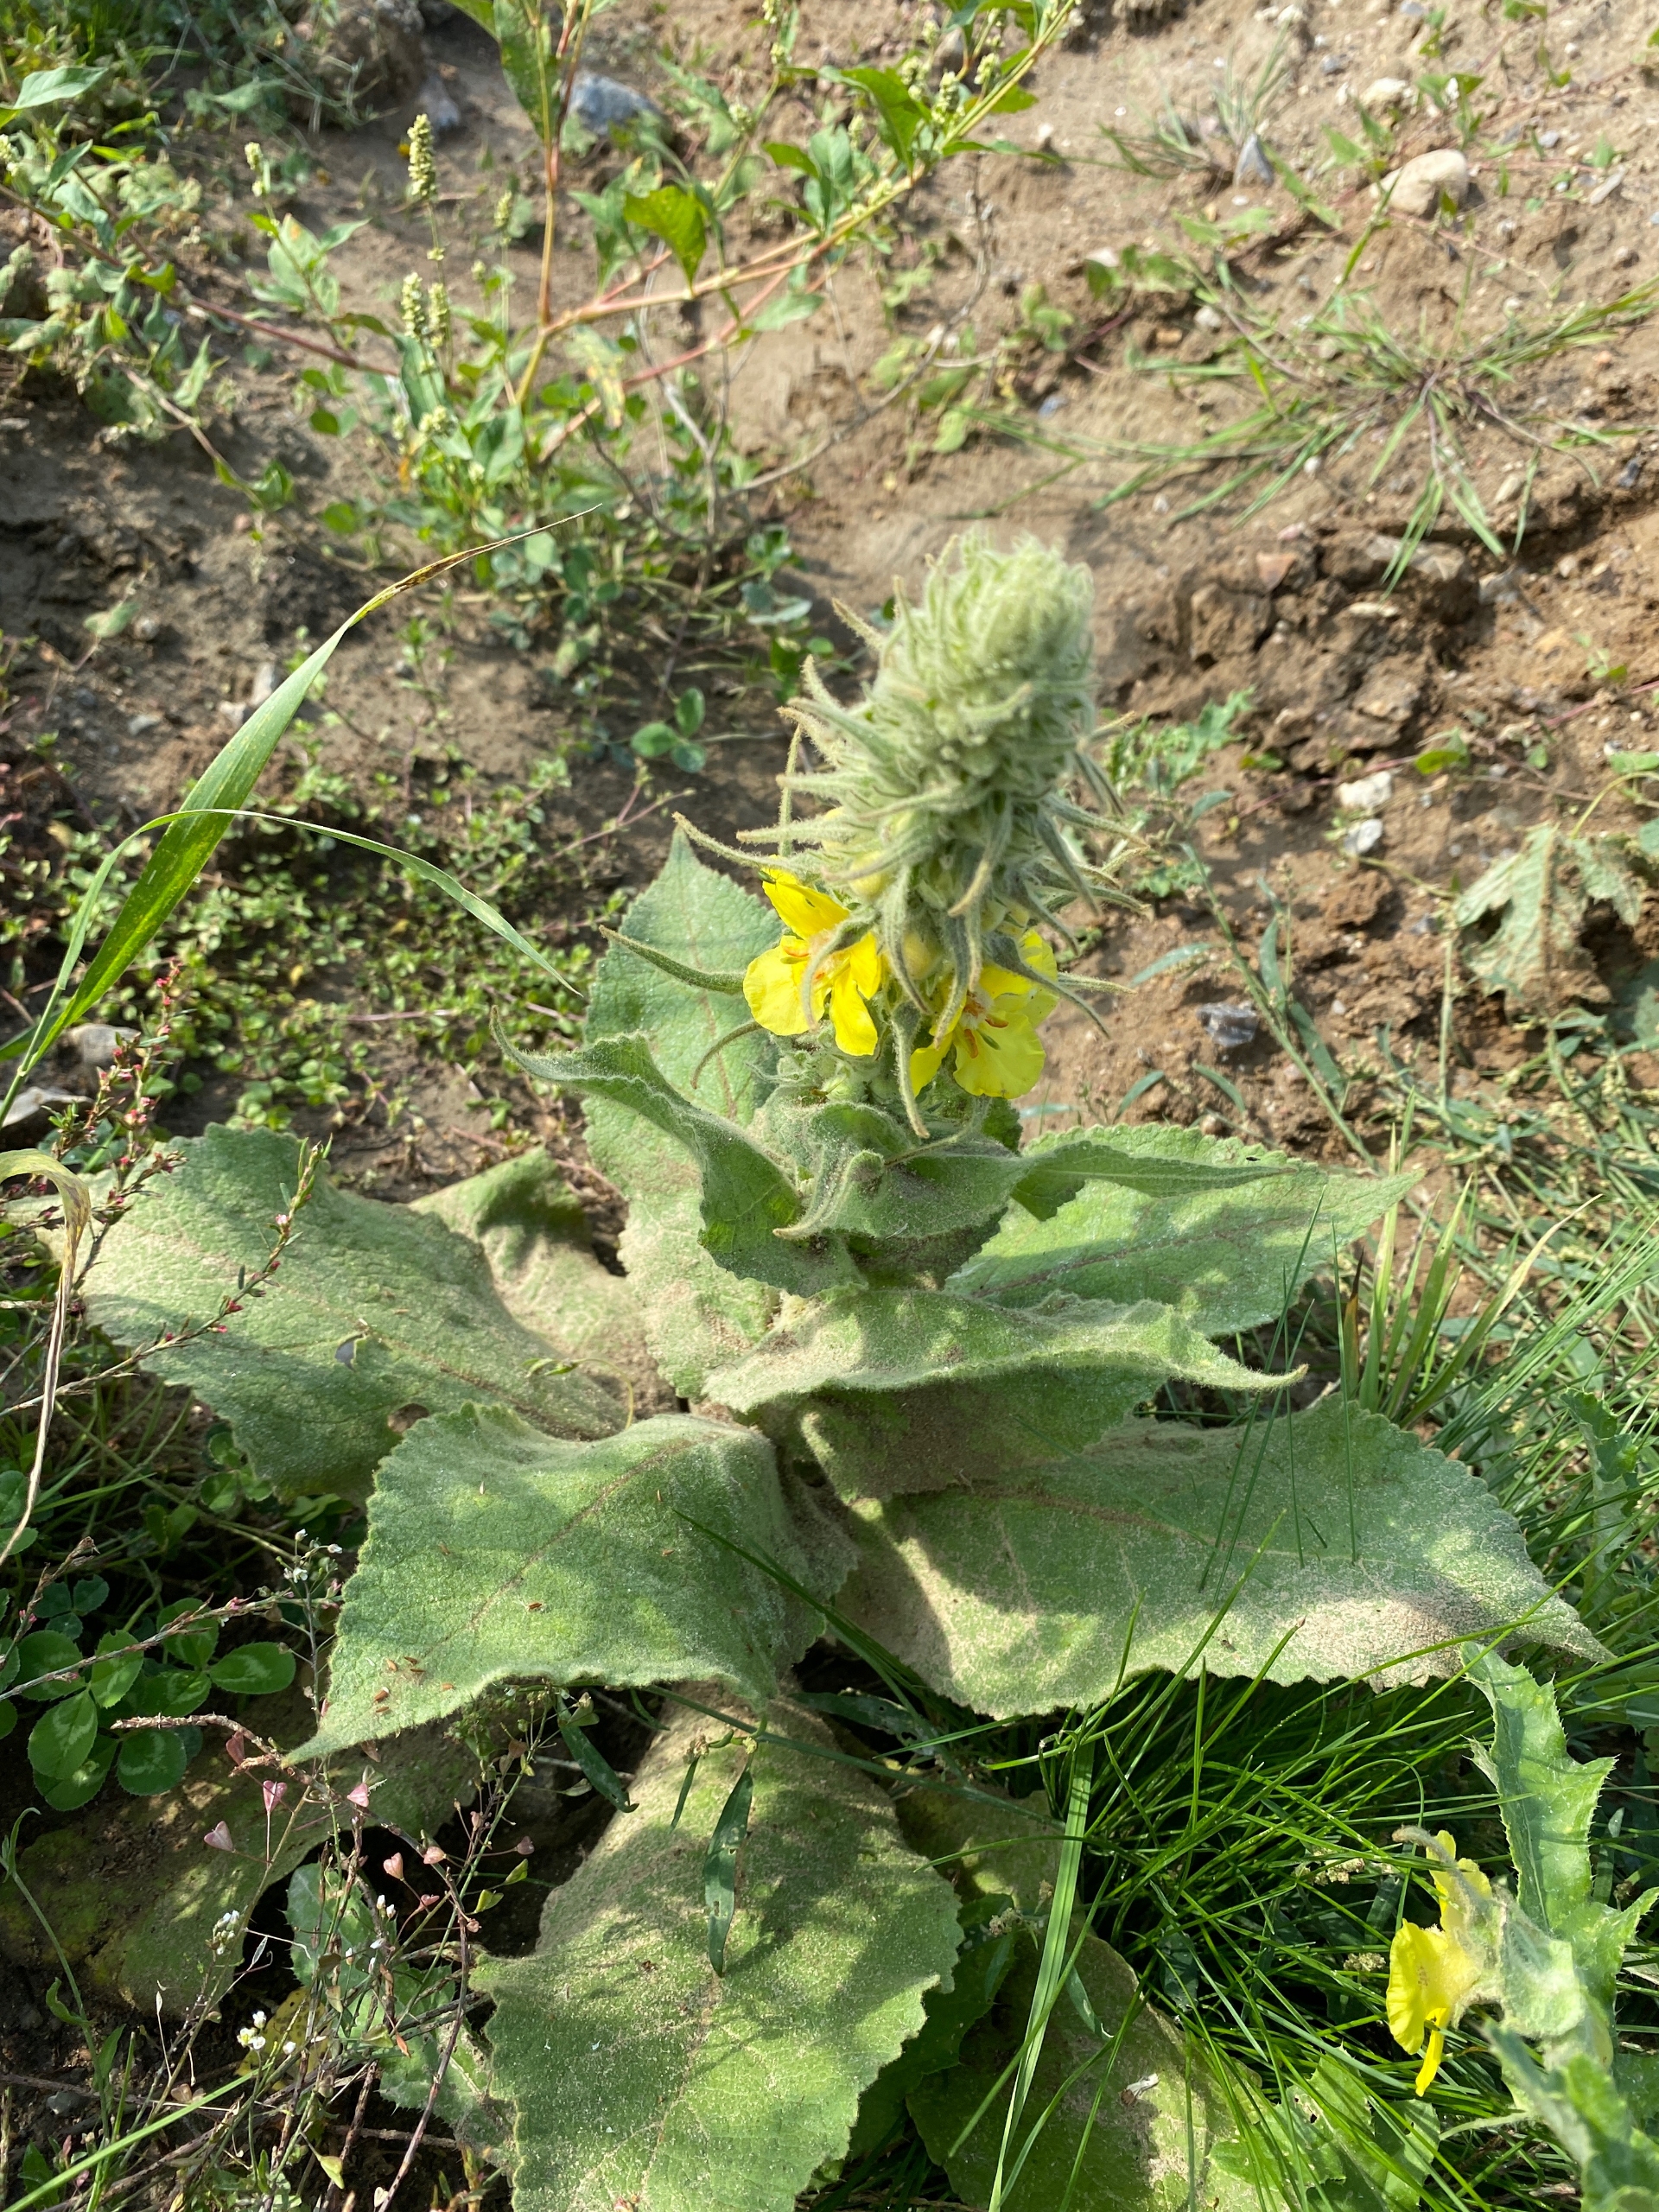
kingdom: Plantae
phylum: Tracheophyta
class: Magnoliopsida
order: Lamiales
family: Scrophulariaceae
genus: Verbascum
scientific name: Verbascum densiflorum
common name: Uldbladet kongelys
